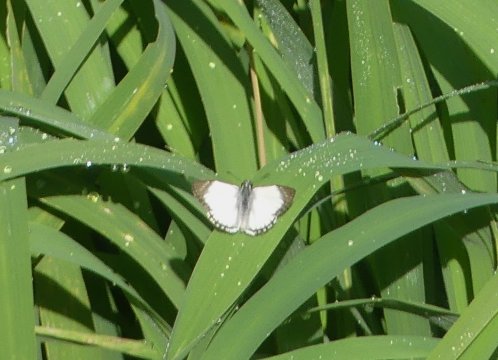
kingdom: Animalia
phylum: Arthropoda
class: Insecta
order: Lepidoptera
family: Hesperiidae
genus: Heliopetes
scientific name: Heliopetes alana
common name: Alana White-Skipper
